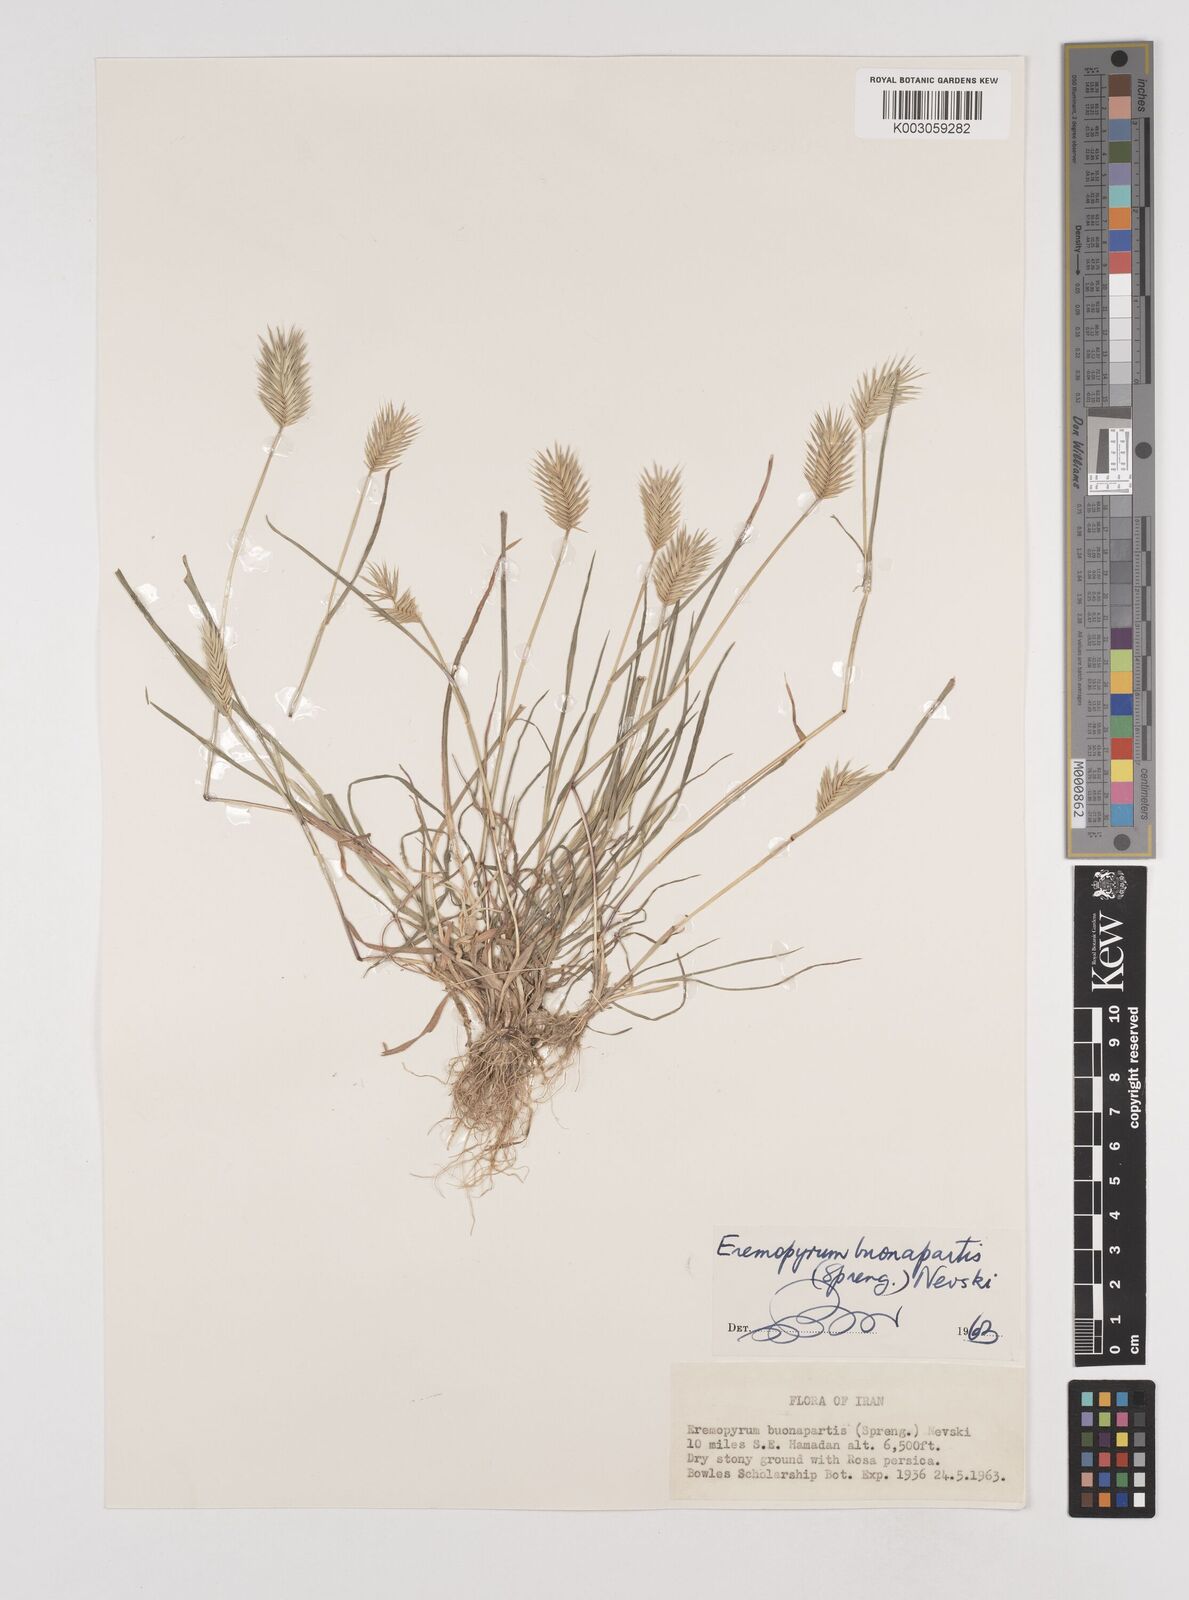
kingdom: Plantae
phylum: Tracheophyta
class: Liliopsida
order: Poales
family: Poaceae
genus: Eremopyrum
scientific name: Eremopyrum bonaepartis
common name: Tapertip false wheatgrass
